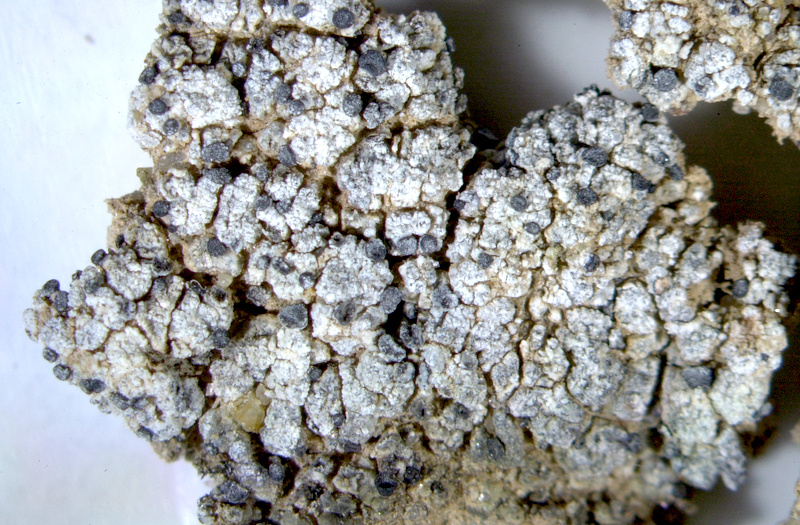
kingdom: Fungi
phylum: Ascomycota
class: Lecanoromycetes
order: Lecanorales
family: Ramalinaceae
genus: Bibbya
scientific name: Bibbya australis
